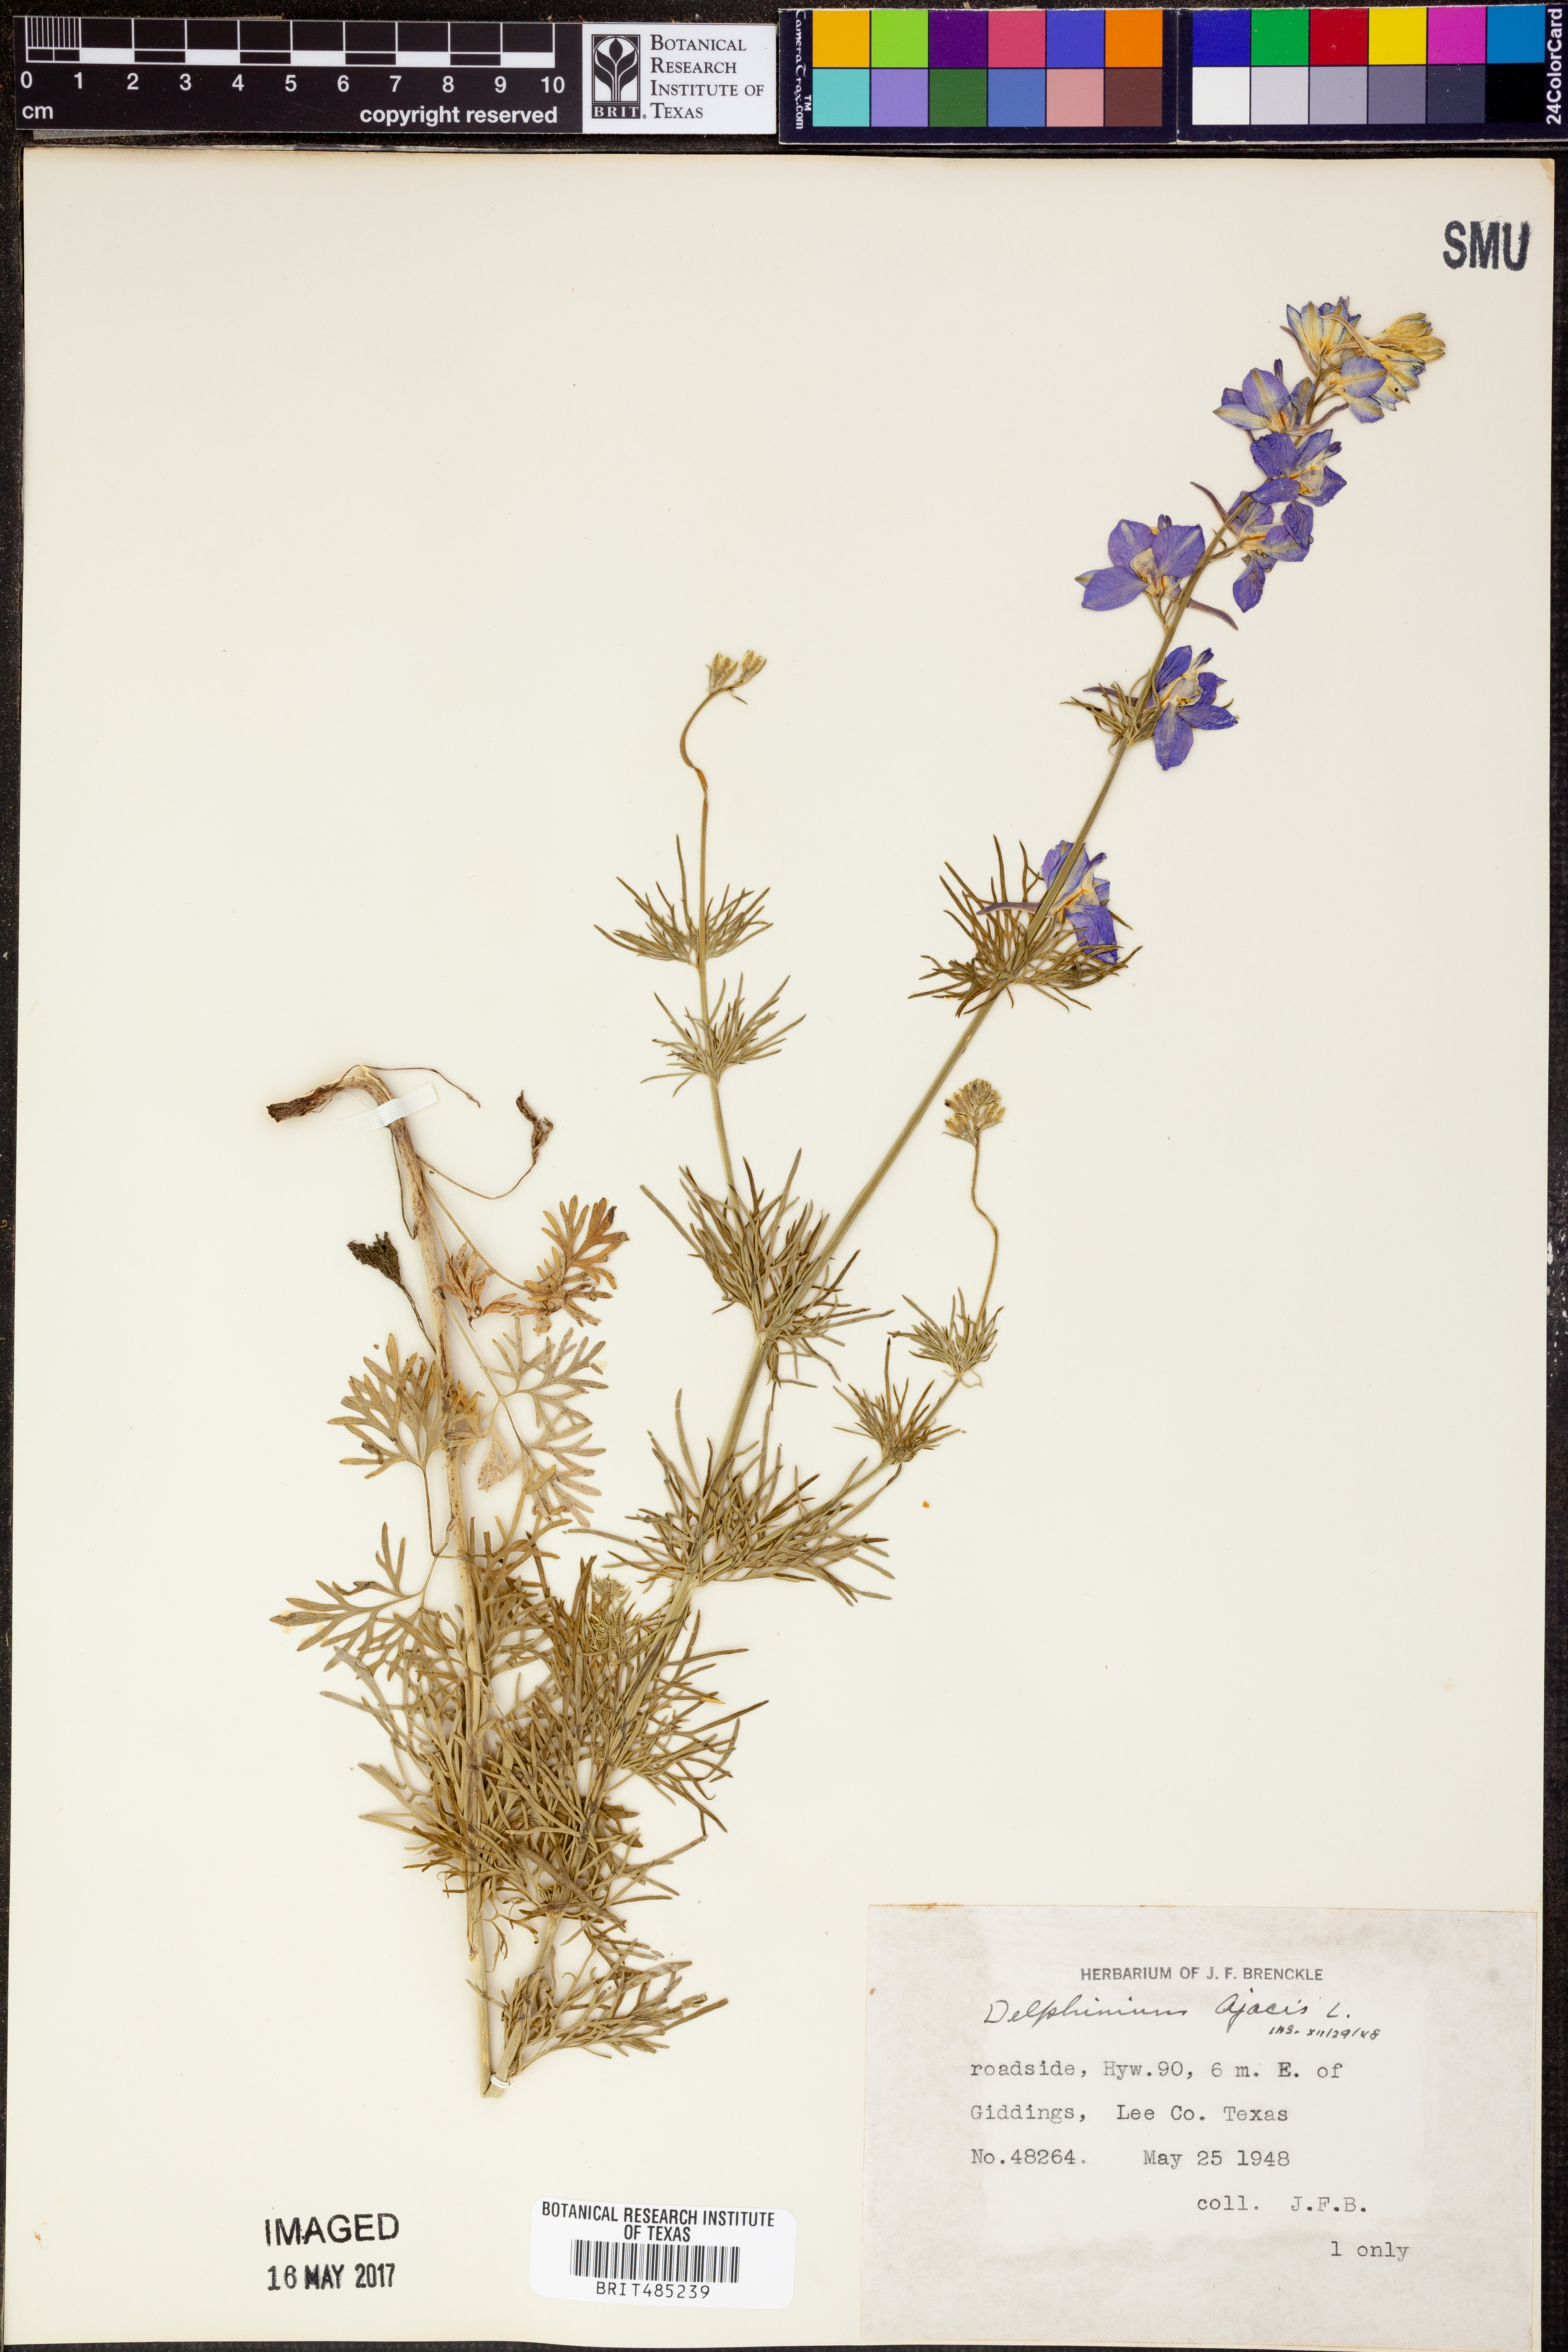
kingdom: Plantae
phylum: Tracheophyta
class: Magnoliopsida
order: Ranunculales
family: Ranunculaceae
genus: Delphinium
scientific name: Delphinium ajacis
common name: Doubtful knight's-spur
